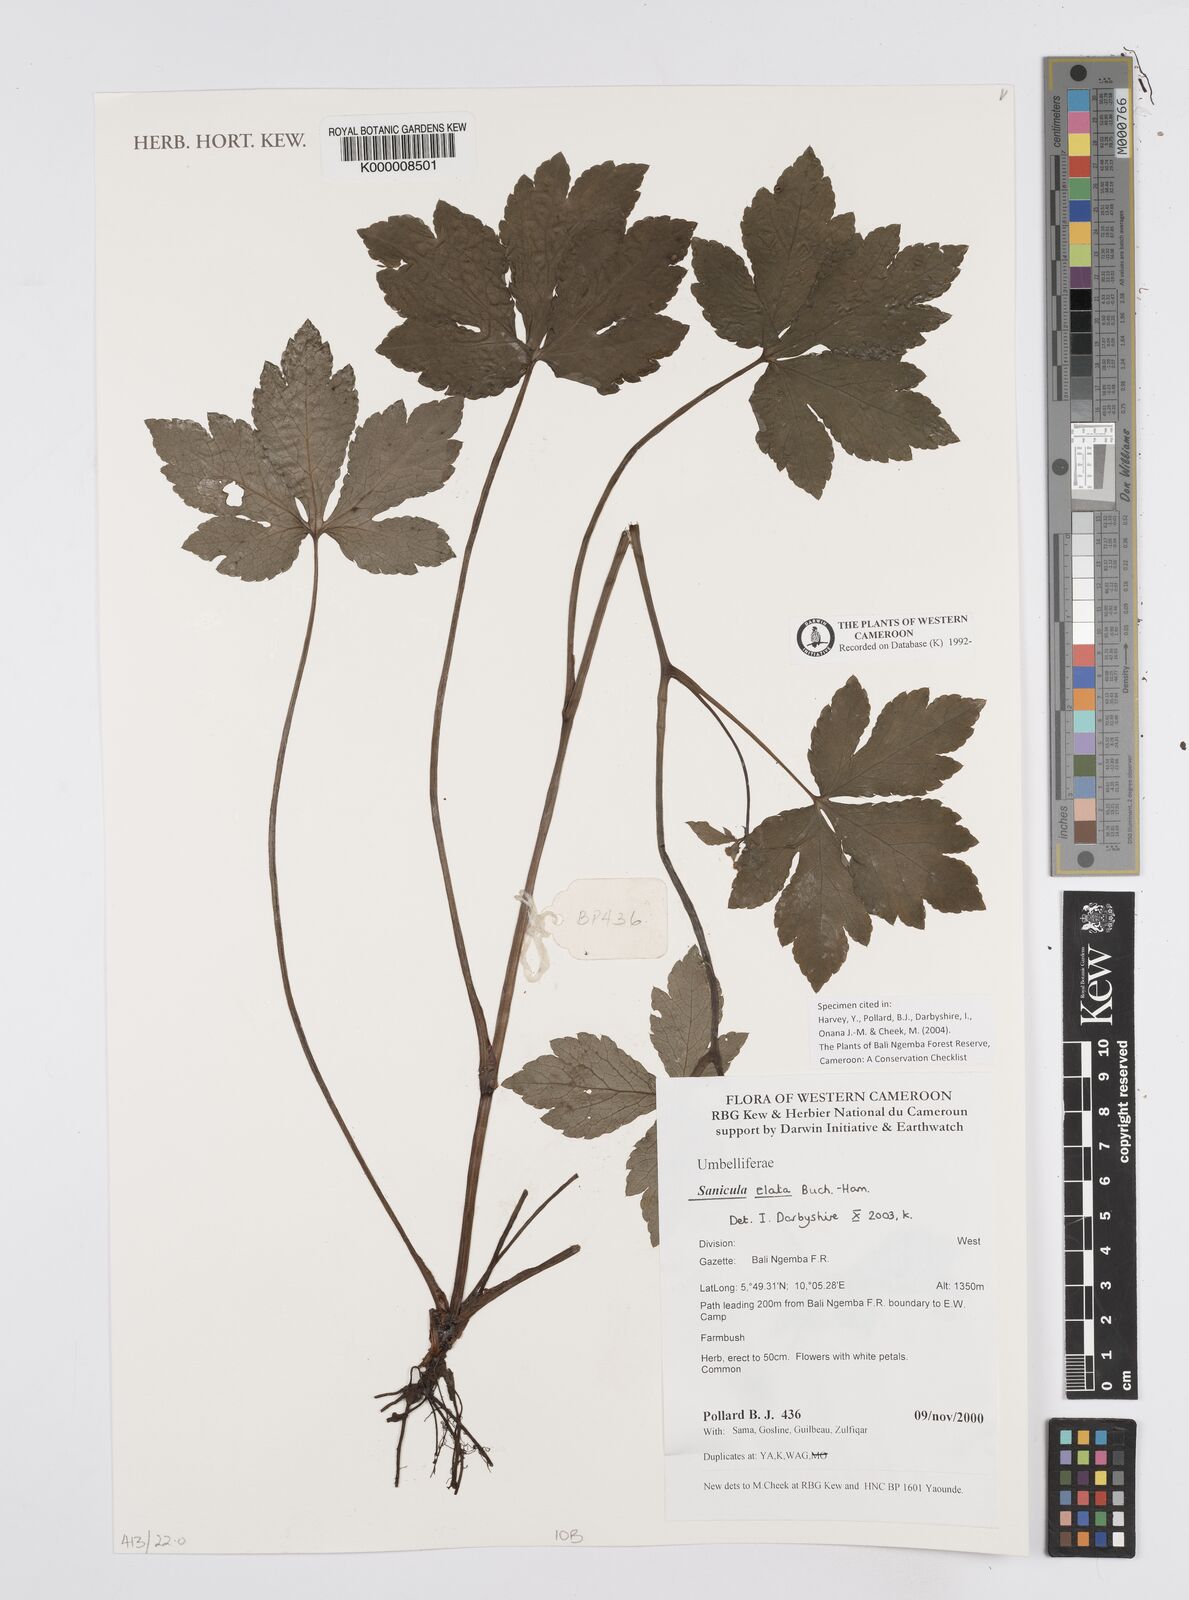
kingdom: Plantae
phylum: Tracheophyta
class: Magnoliopsida
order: Apiales
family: Apiaceae
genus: Sanicula
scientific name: Sanicula
